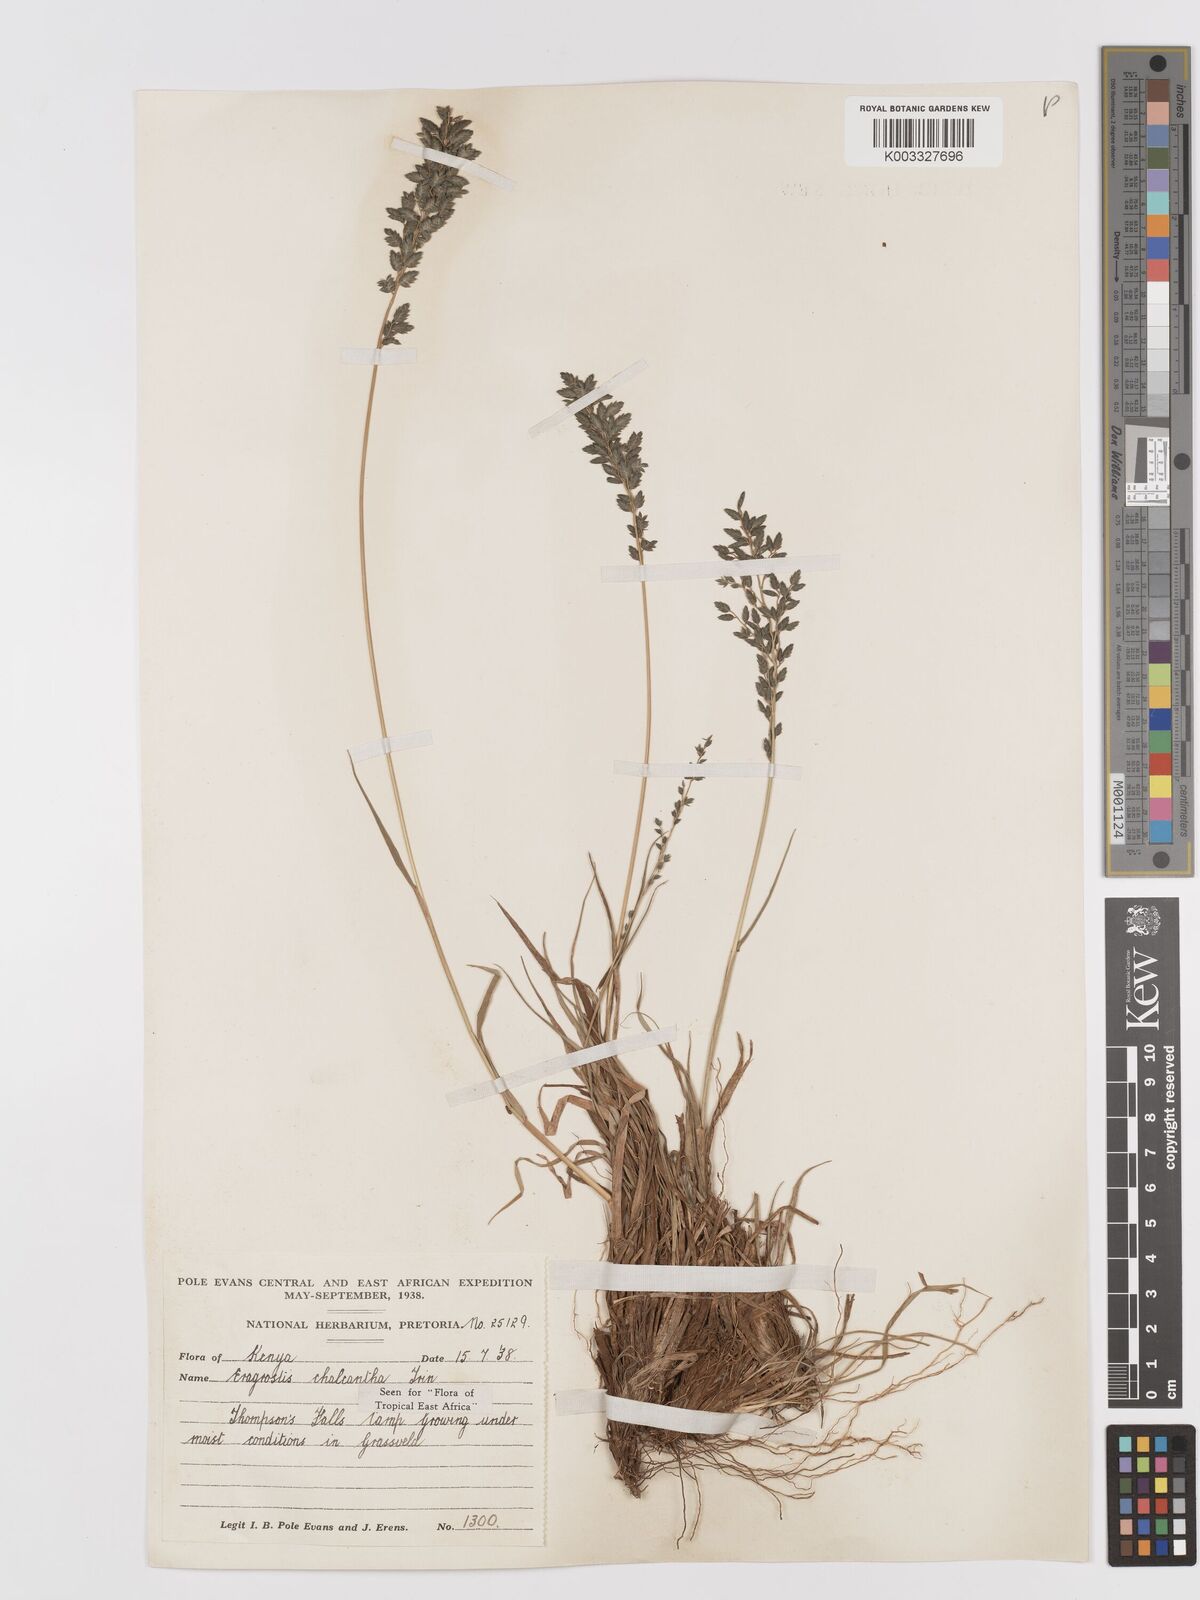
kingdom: Plantae
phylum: Tracheophyta
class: Liliopsida
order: Poales
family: Poaceae
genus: Eragrostis
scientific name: Eragrostis racemosa
